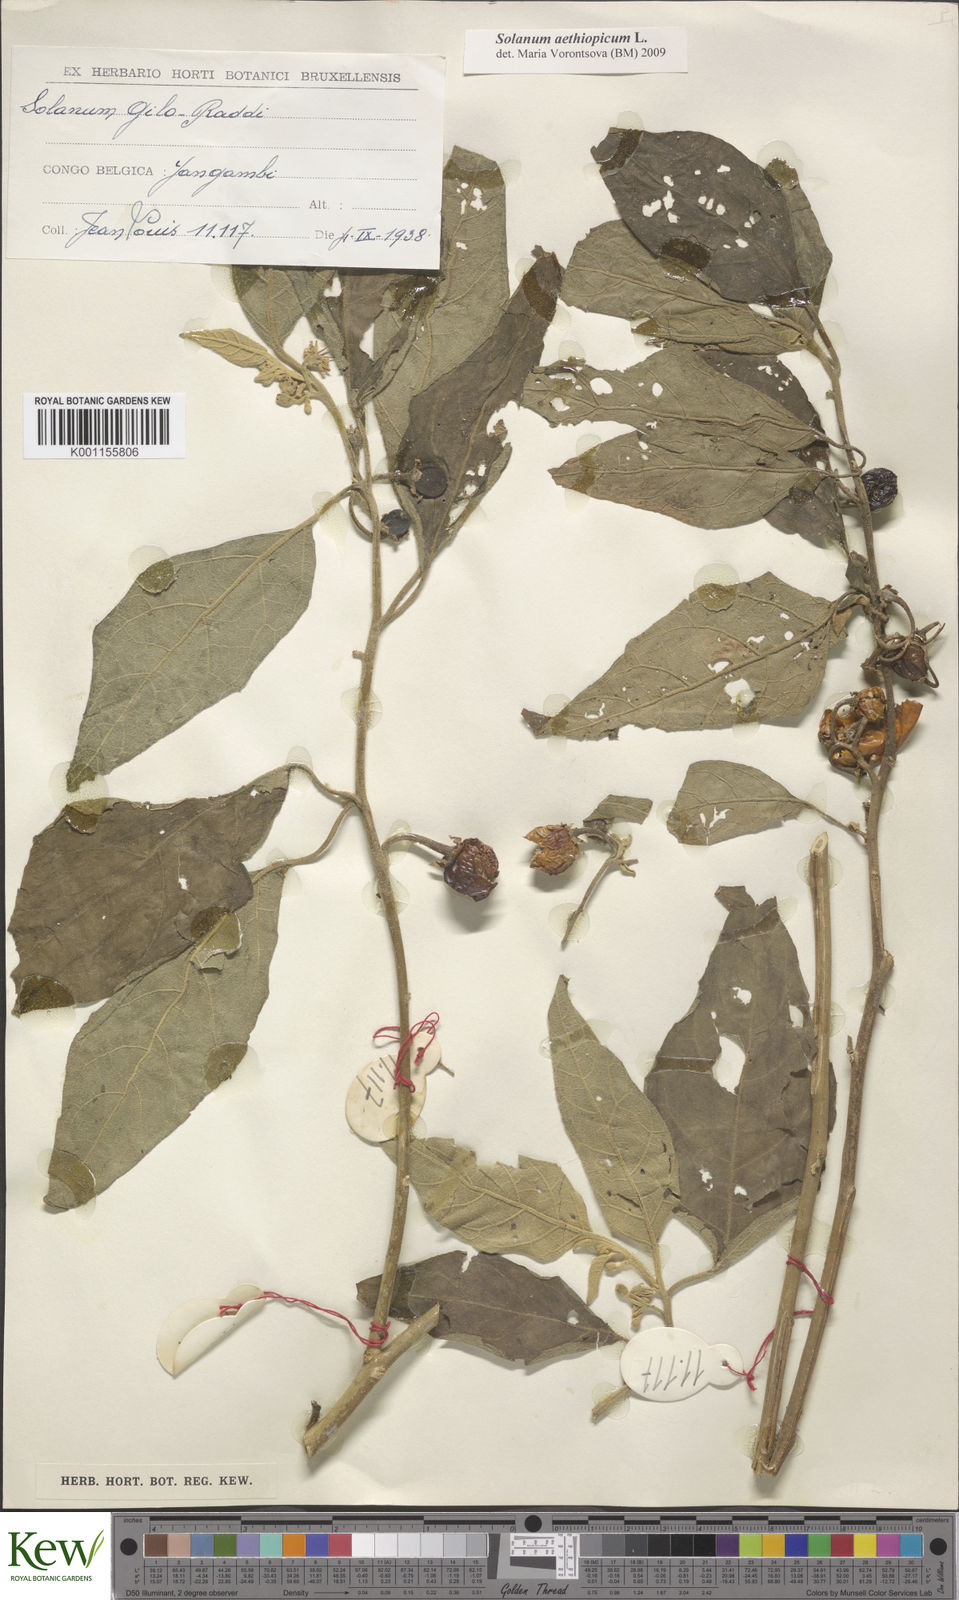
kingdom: Plantae
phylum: Tracheophyta
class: Magnoliopsida
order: Solanales
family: Solanaceae
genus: Solanum
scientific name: Solanum aethiopicum
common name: Gilo
